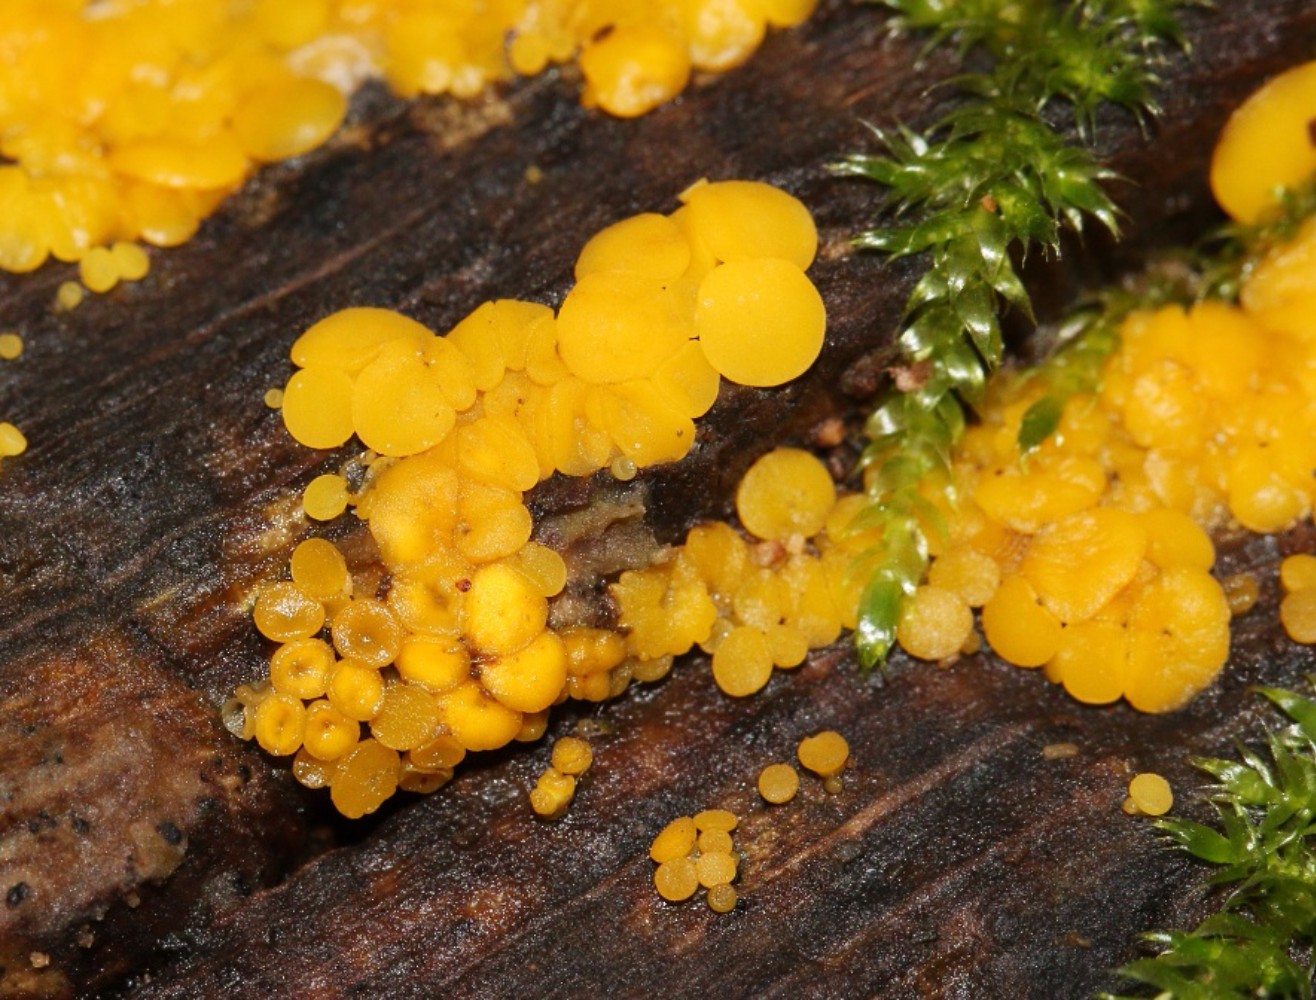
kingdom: Fungi
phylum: Ascomycota
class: Leotiomycetes
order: Helotiales
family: Pezizellaceae
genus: Calycina
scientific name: Calycina citrina
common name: almindelig gulskive
